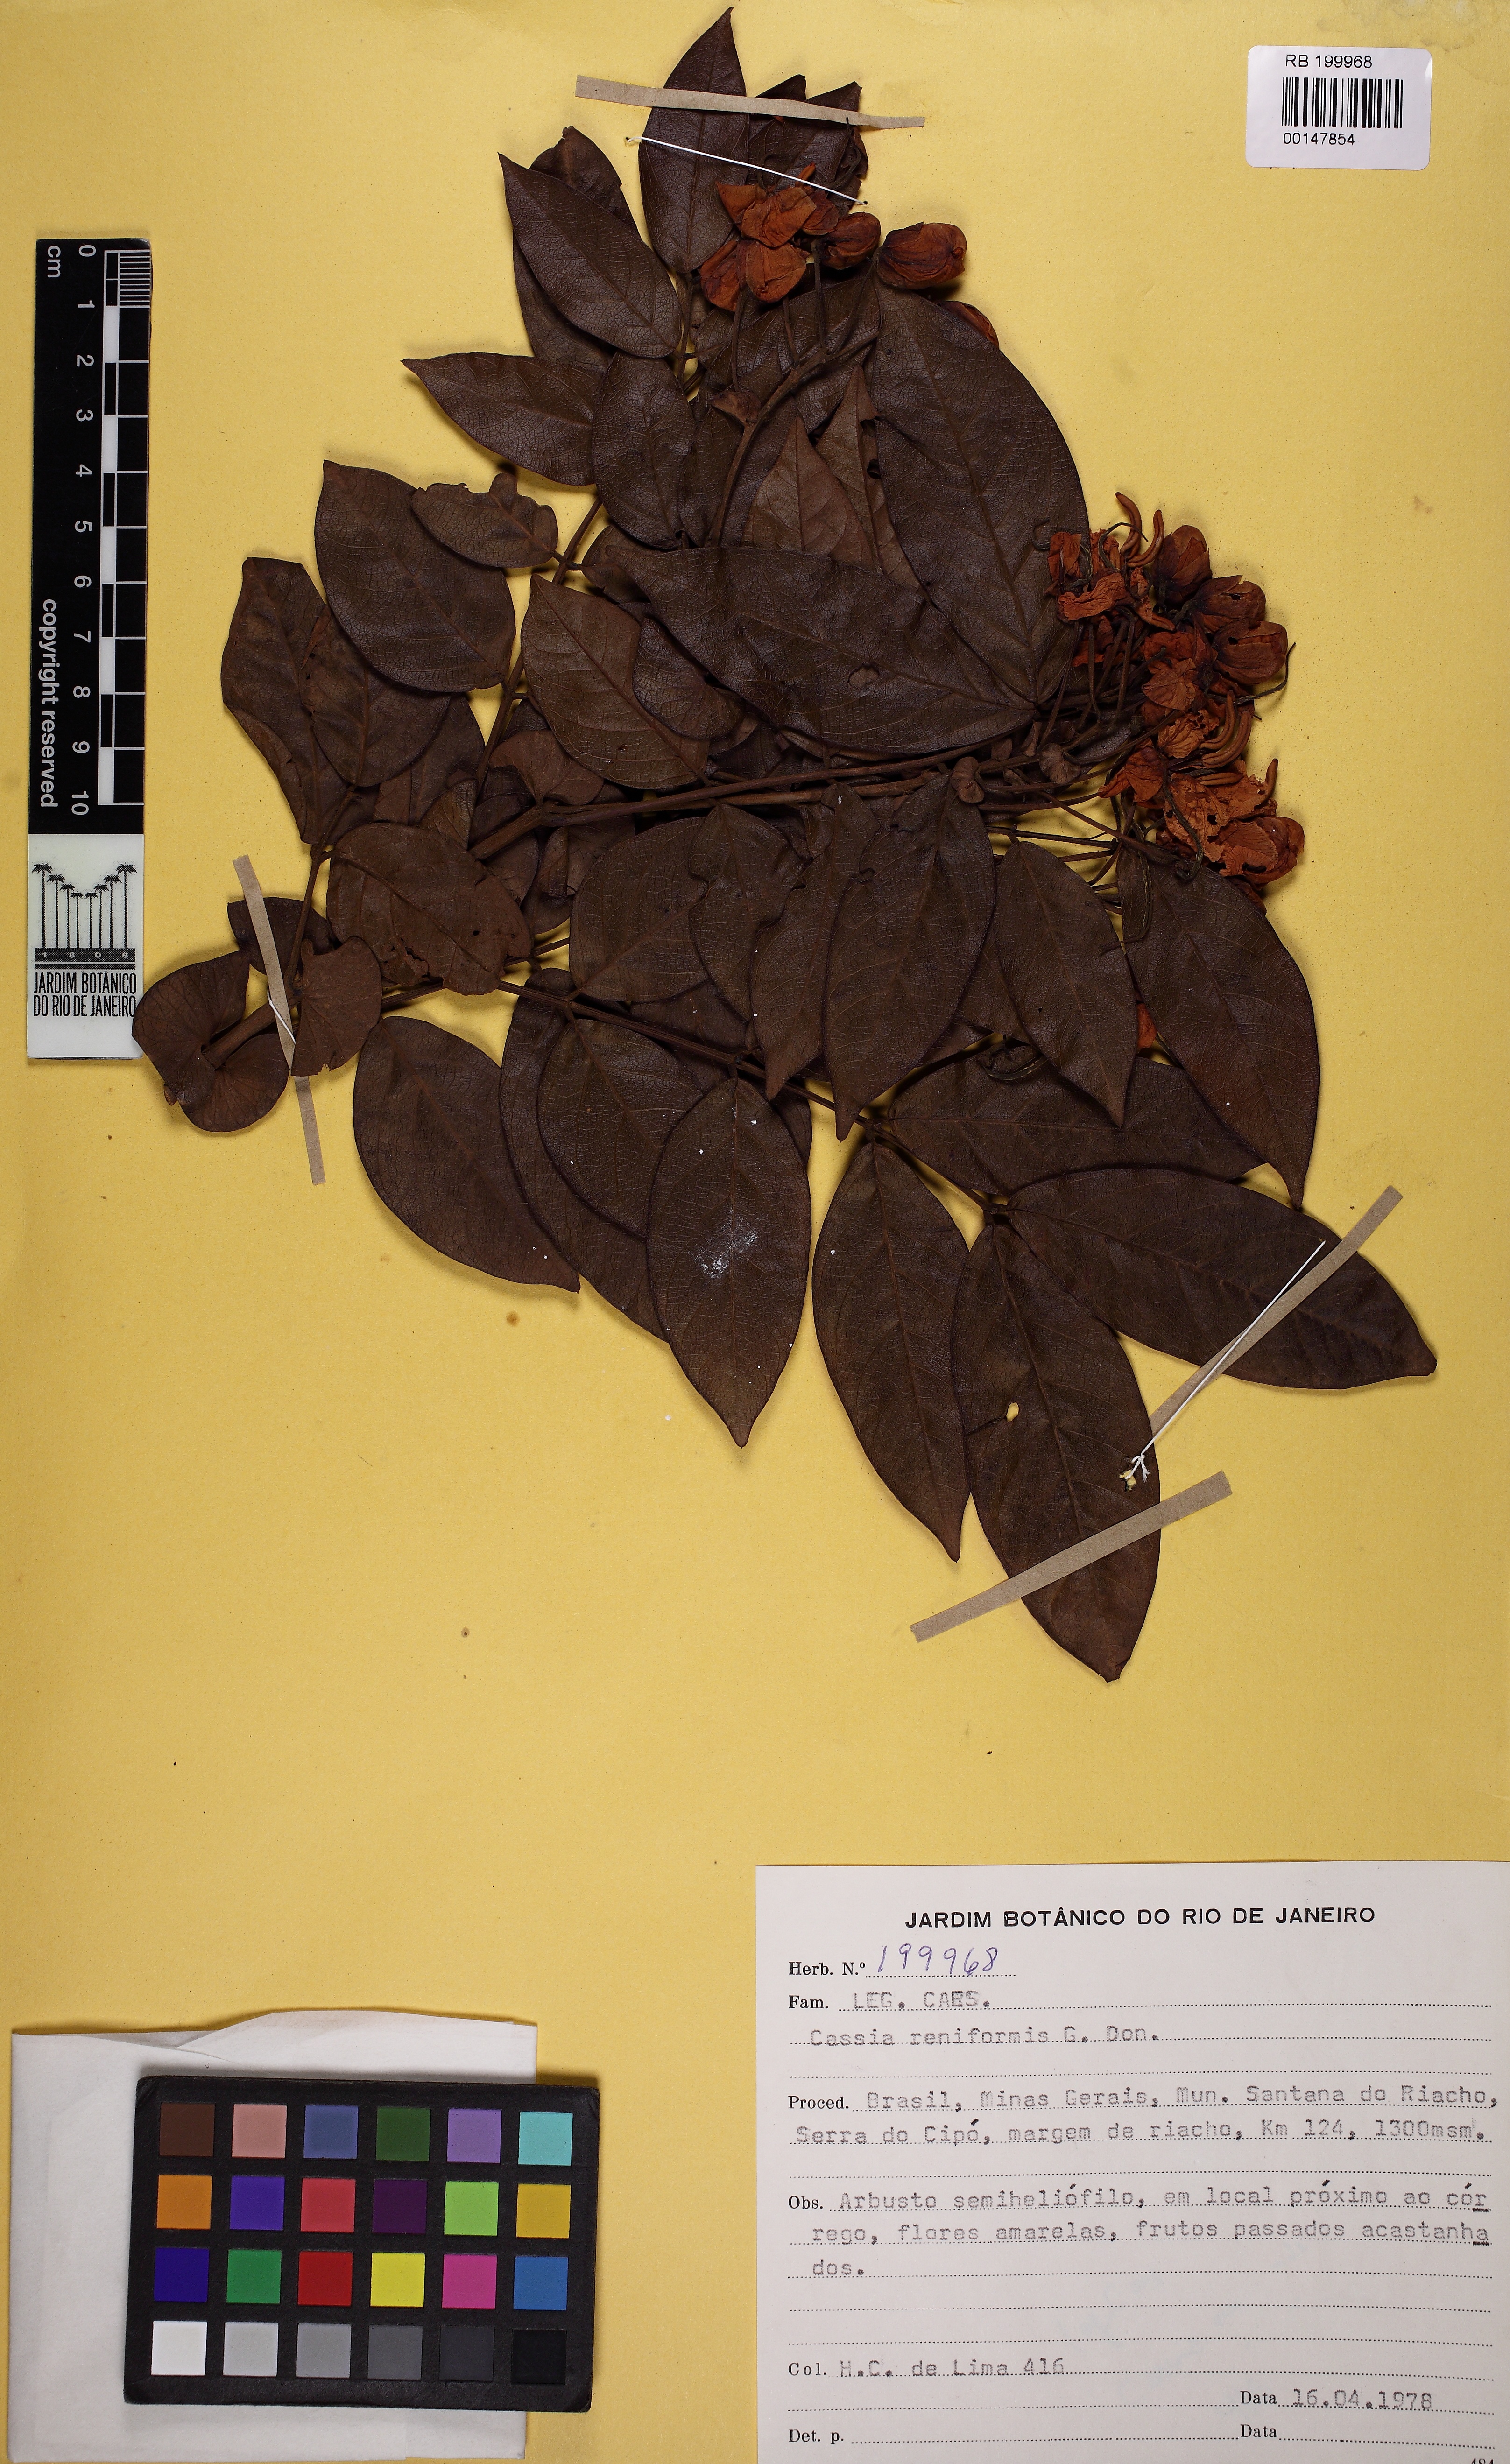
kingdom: Plantae
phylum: Tracheophyta
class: Magnoliopsida
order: Fabales
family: Fabaceae
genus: Senna
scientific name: Senna reniformis
